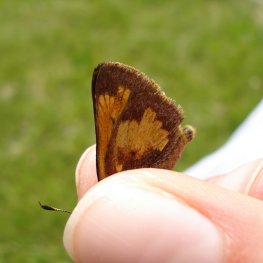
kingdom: Animalia
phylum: Arthropoda
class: Insecta
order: Lepidoptera
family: Hesperiidae
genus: Lon
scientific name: Lon hobomok
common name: Hobomok Skipper
